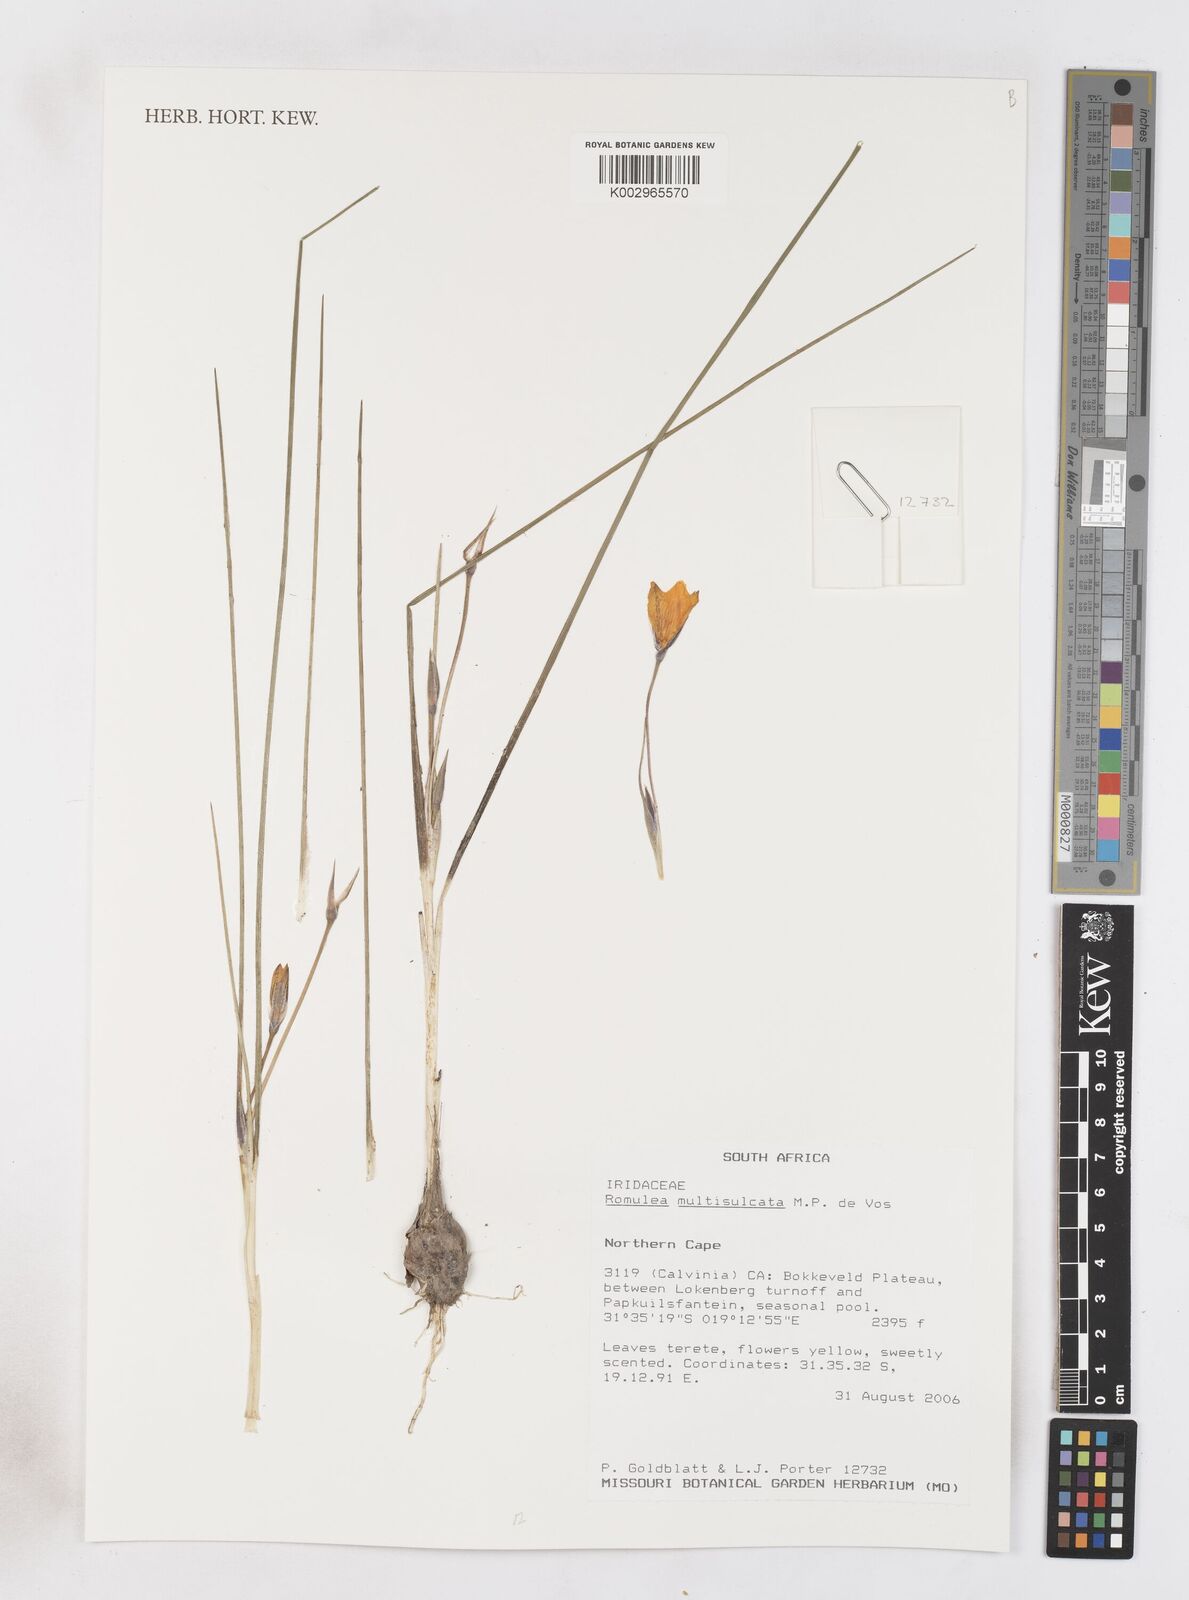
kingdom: Plantae
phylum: Tracheophyta
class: Liliopsida
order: Asparagales
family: Iridaceae
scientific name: Iridaceae
